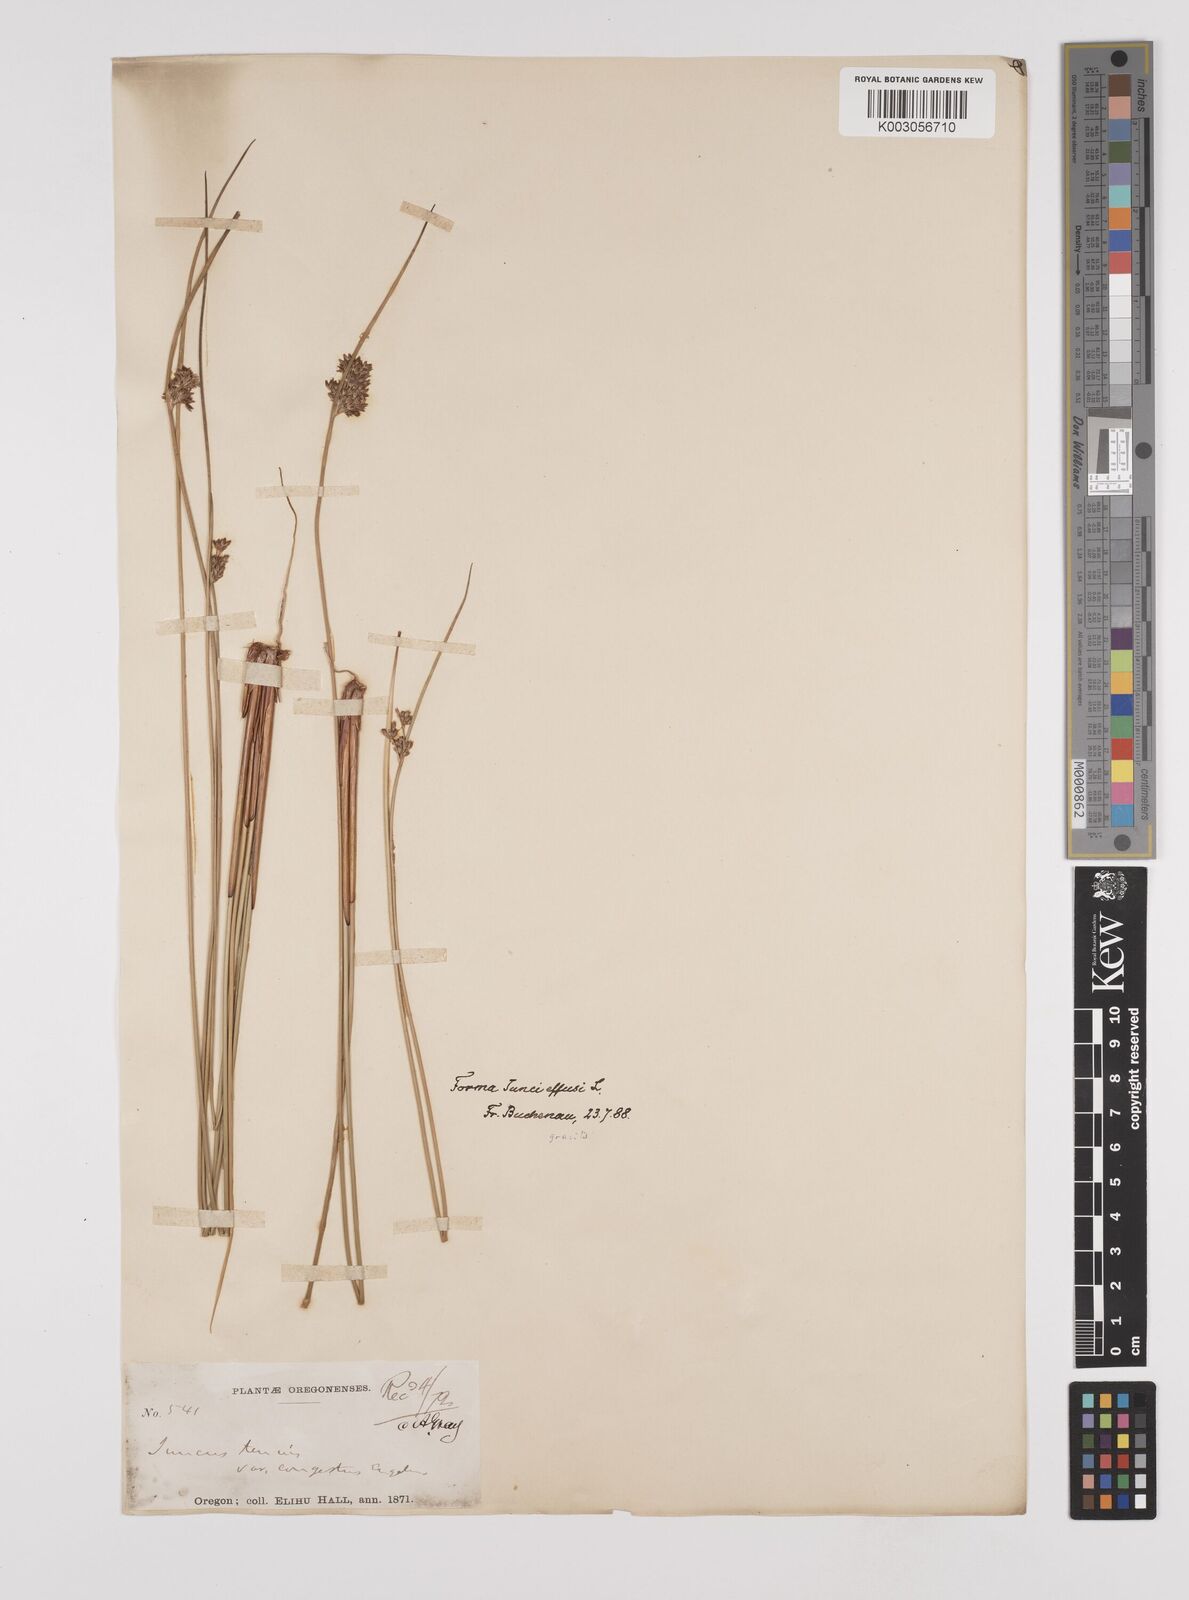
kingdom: Plantae
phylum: Tracheophyta
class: Liliopsida
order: Poales
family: Juncaceae
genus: Juncus
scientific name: Juncus laccatus
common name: Shiny rush
